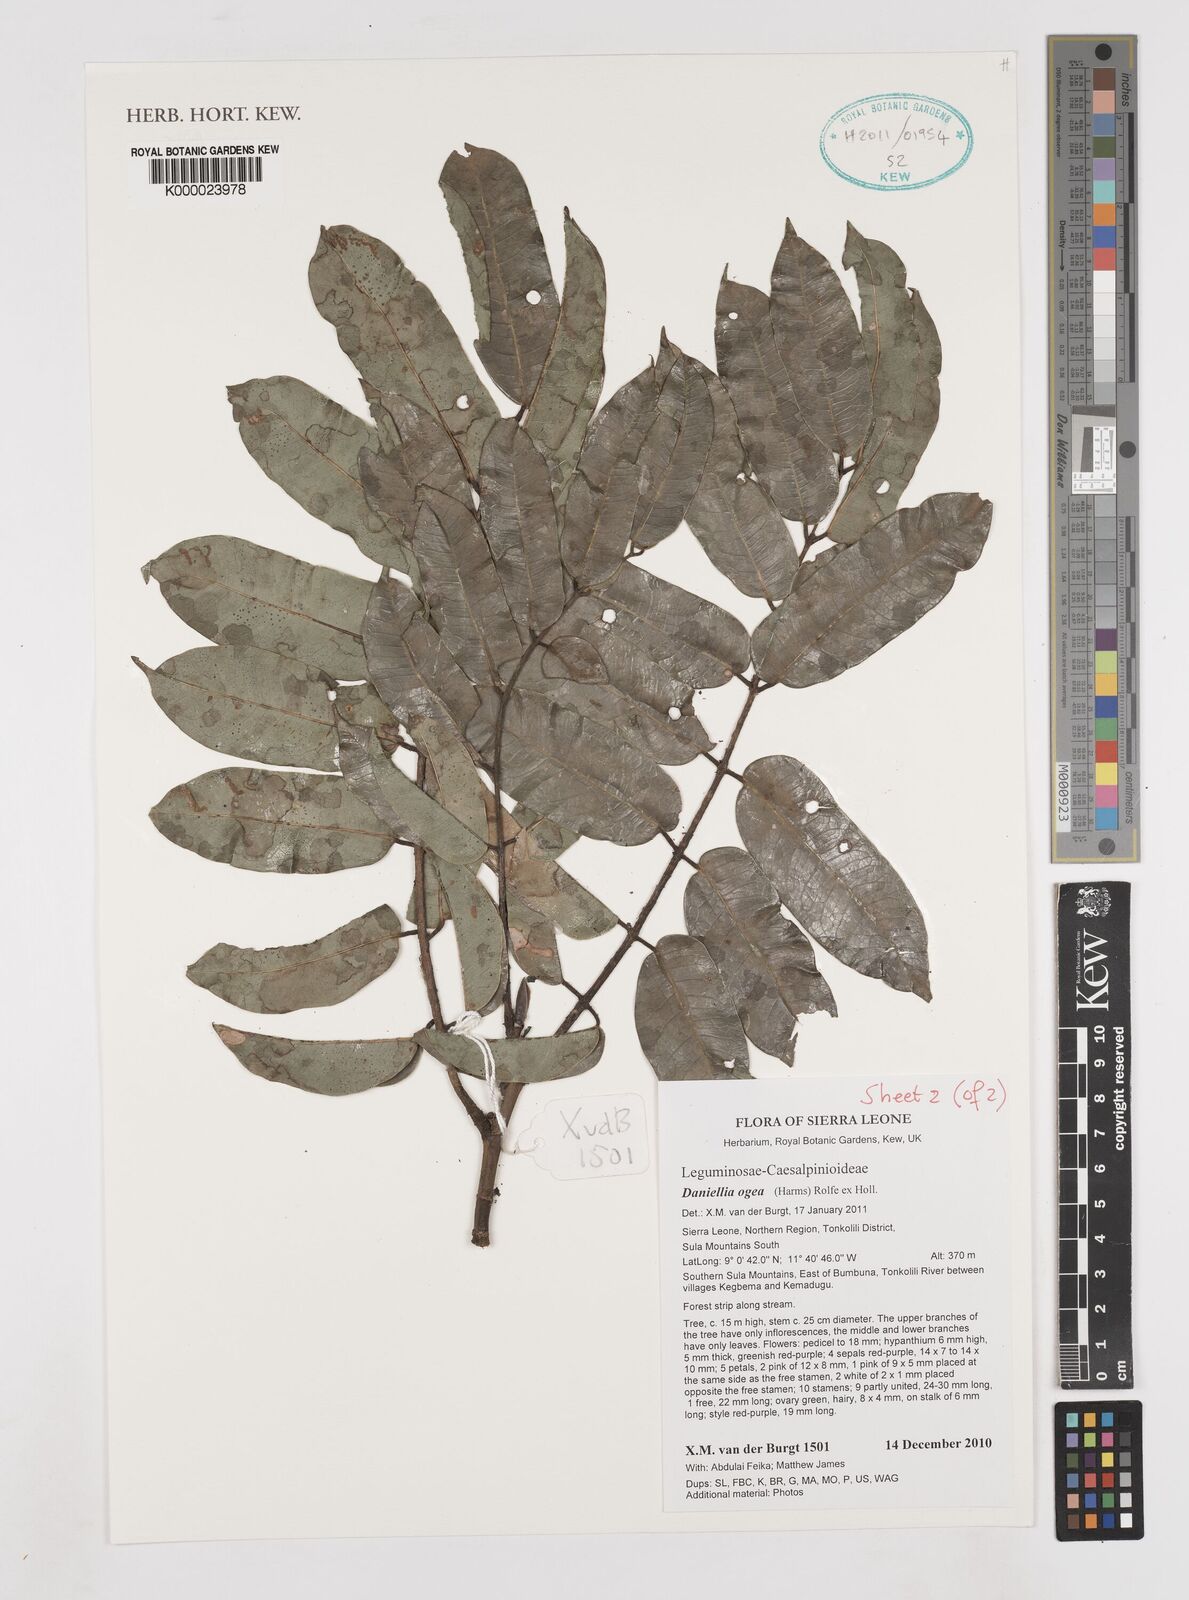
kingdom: Plantae
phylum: Tracheophyta
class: Magnoliopsida
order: Fabales
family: Fabaceae
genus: Gilbertiodendron
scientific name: Gilbertiodendron
